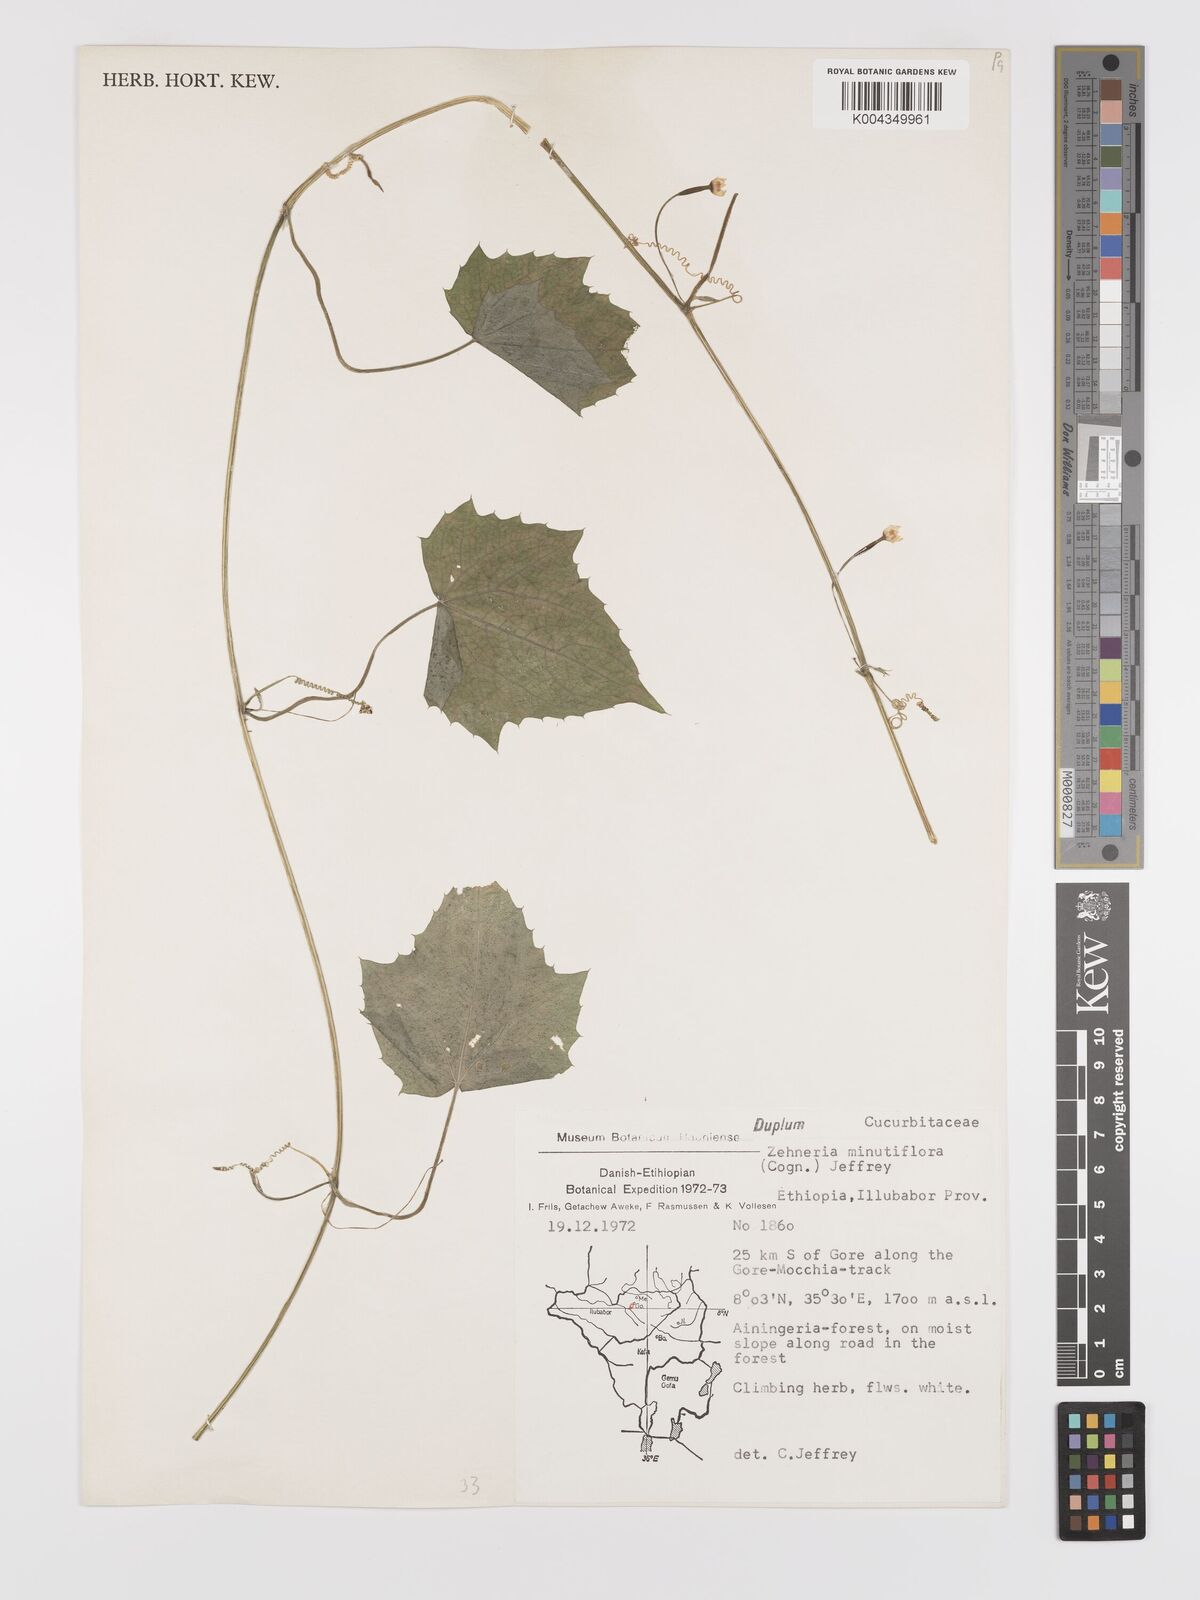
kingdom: Plantae
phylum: Tracheophyta
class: Magnoliopsida
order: Cucurbitales
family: Cucurbitaceae
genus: Zehneria
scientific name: Zehneria minutiflora
